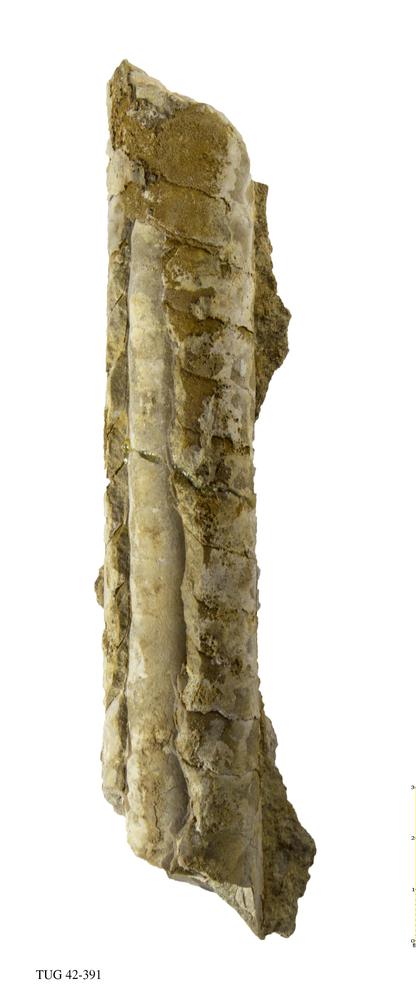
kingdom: Animalia
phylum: Mollusca
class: Cephalopoda
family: Endoceratidae
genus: Proterovaginoceras
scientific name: Proterovaginoceras Endoceras incognitum
